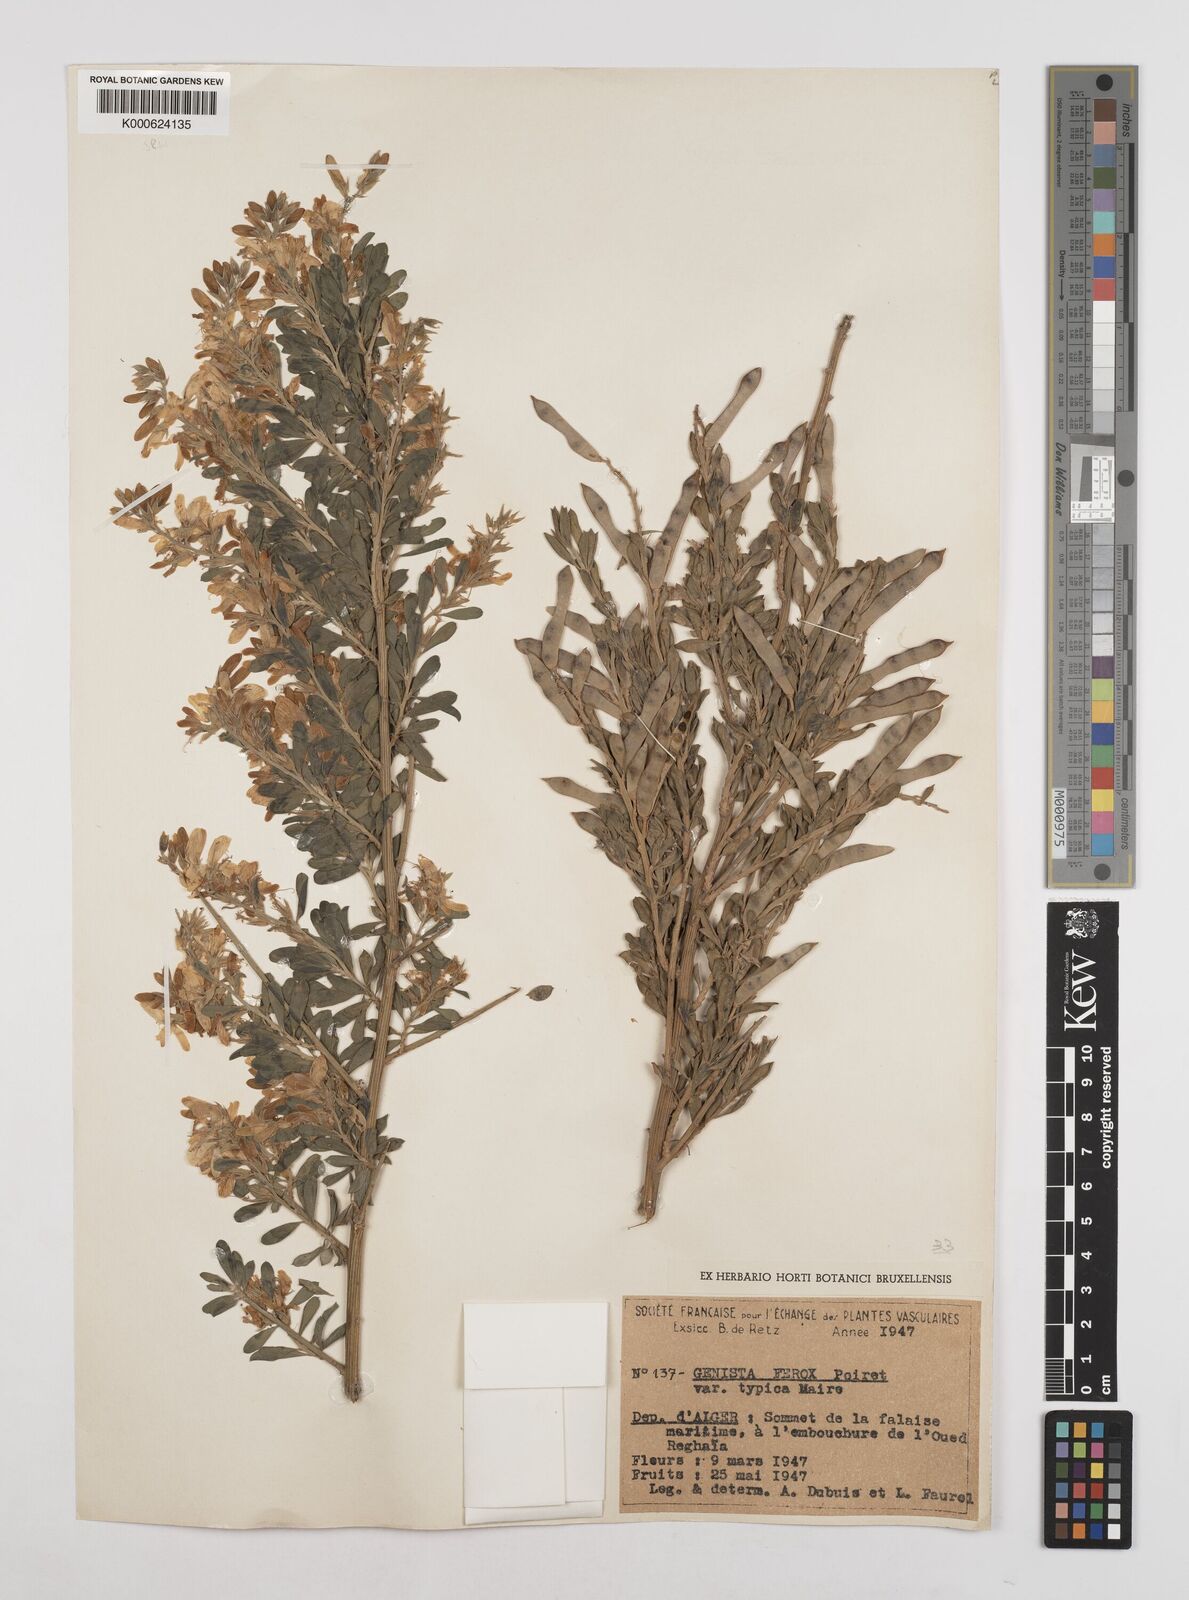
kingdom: Plantae
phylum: Tracheophyta
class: Magnoliopsida
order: Fabales
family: Fabaceae
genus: Genista
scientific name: Genista
